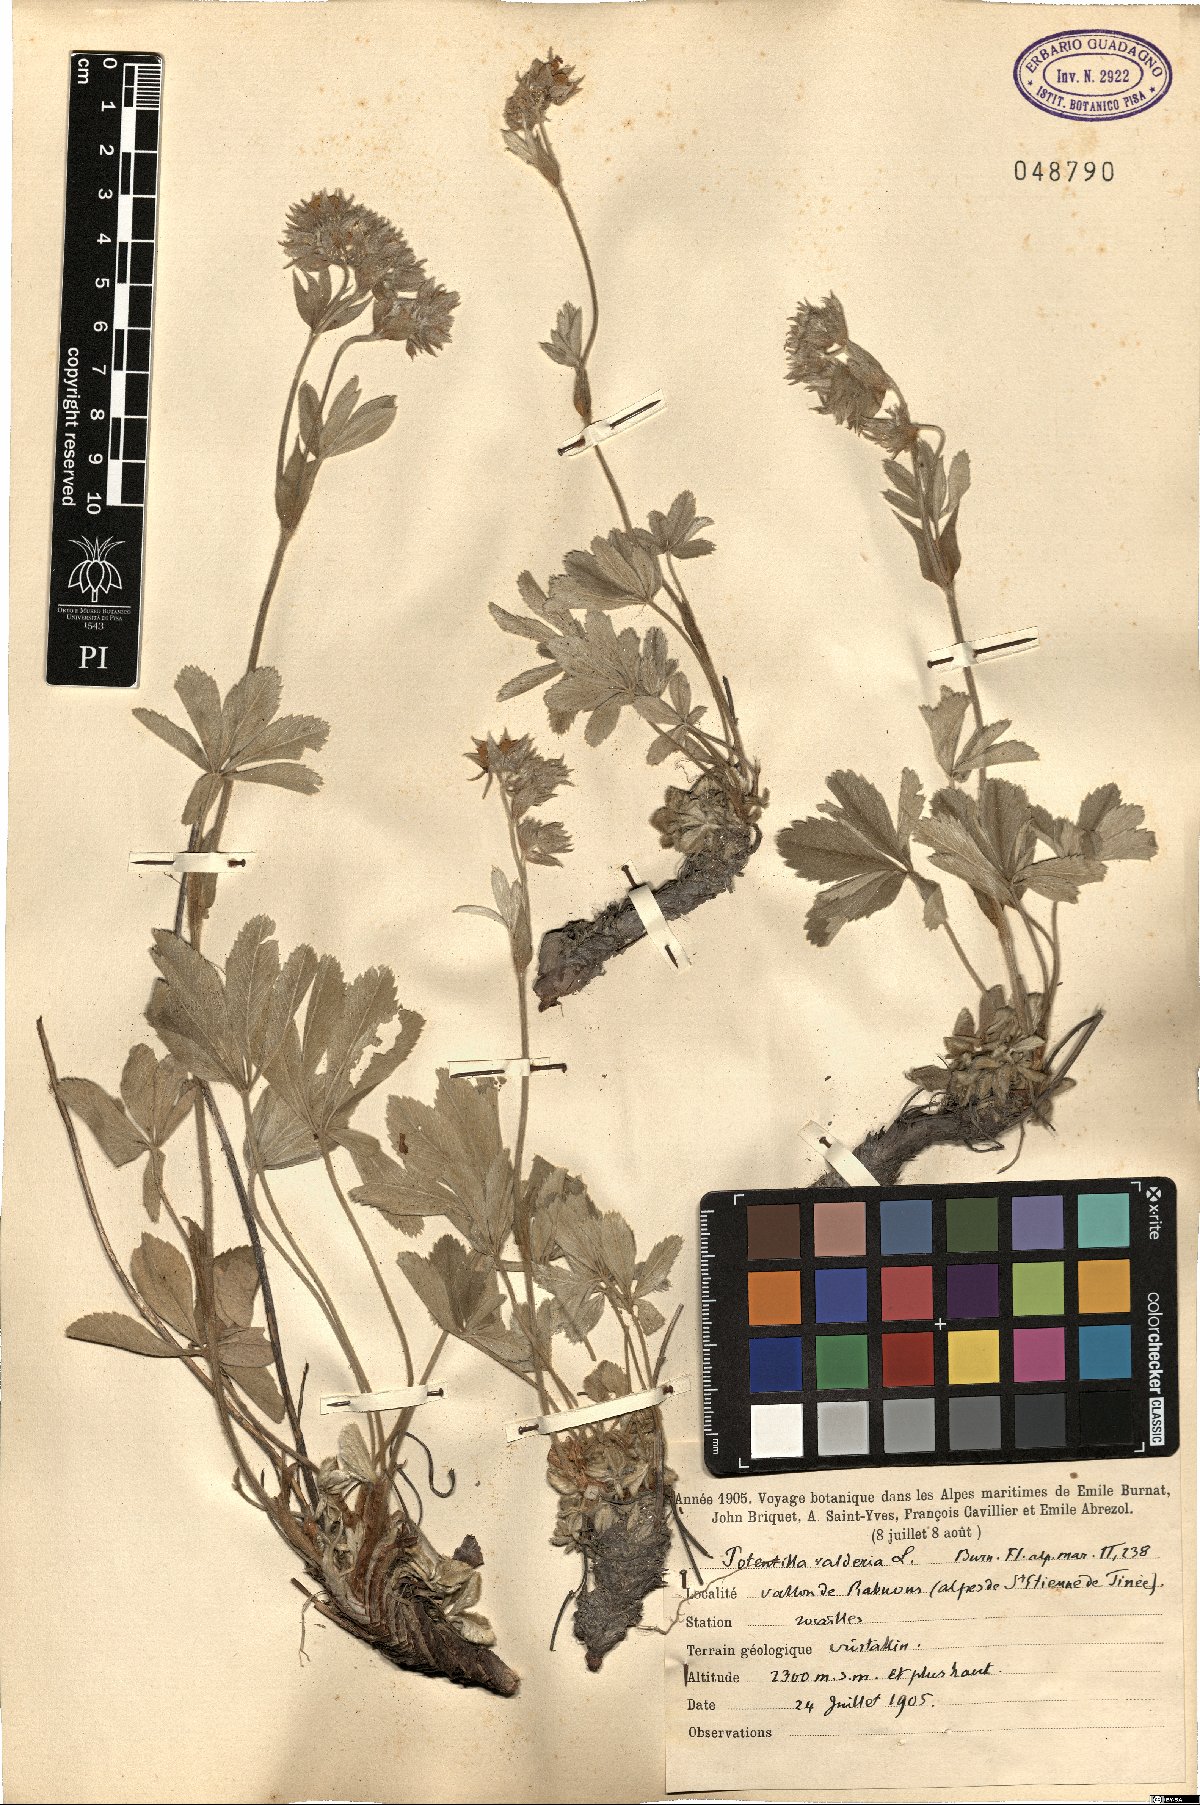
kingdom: Plantae
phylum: Tracheophyta
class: Magnoliopsida
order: Rosales
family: Rosaceae
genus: Potentilla
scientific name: Potentilla valderia
